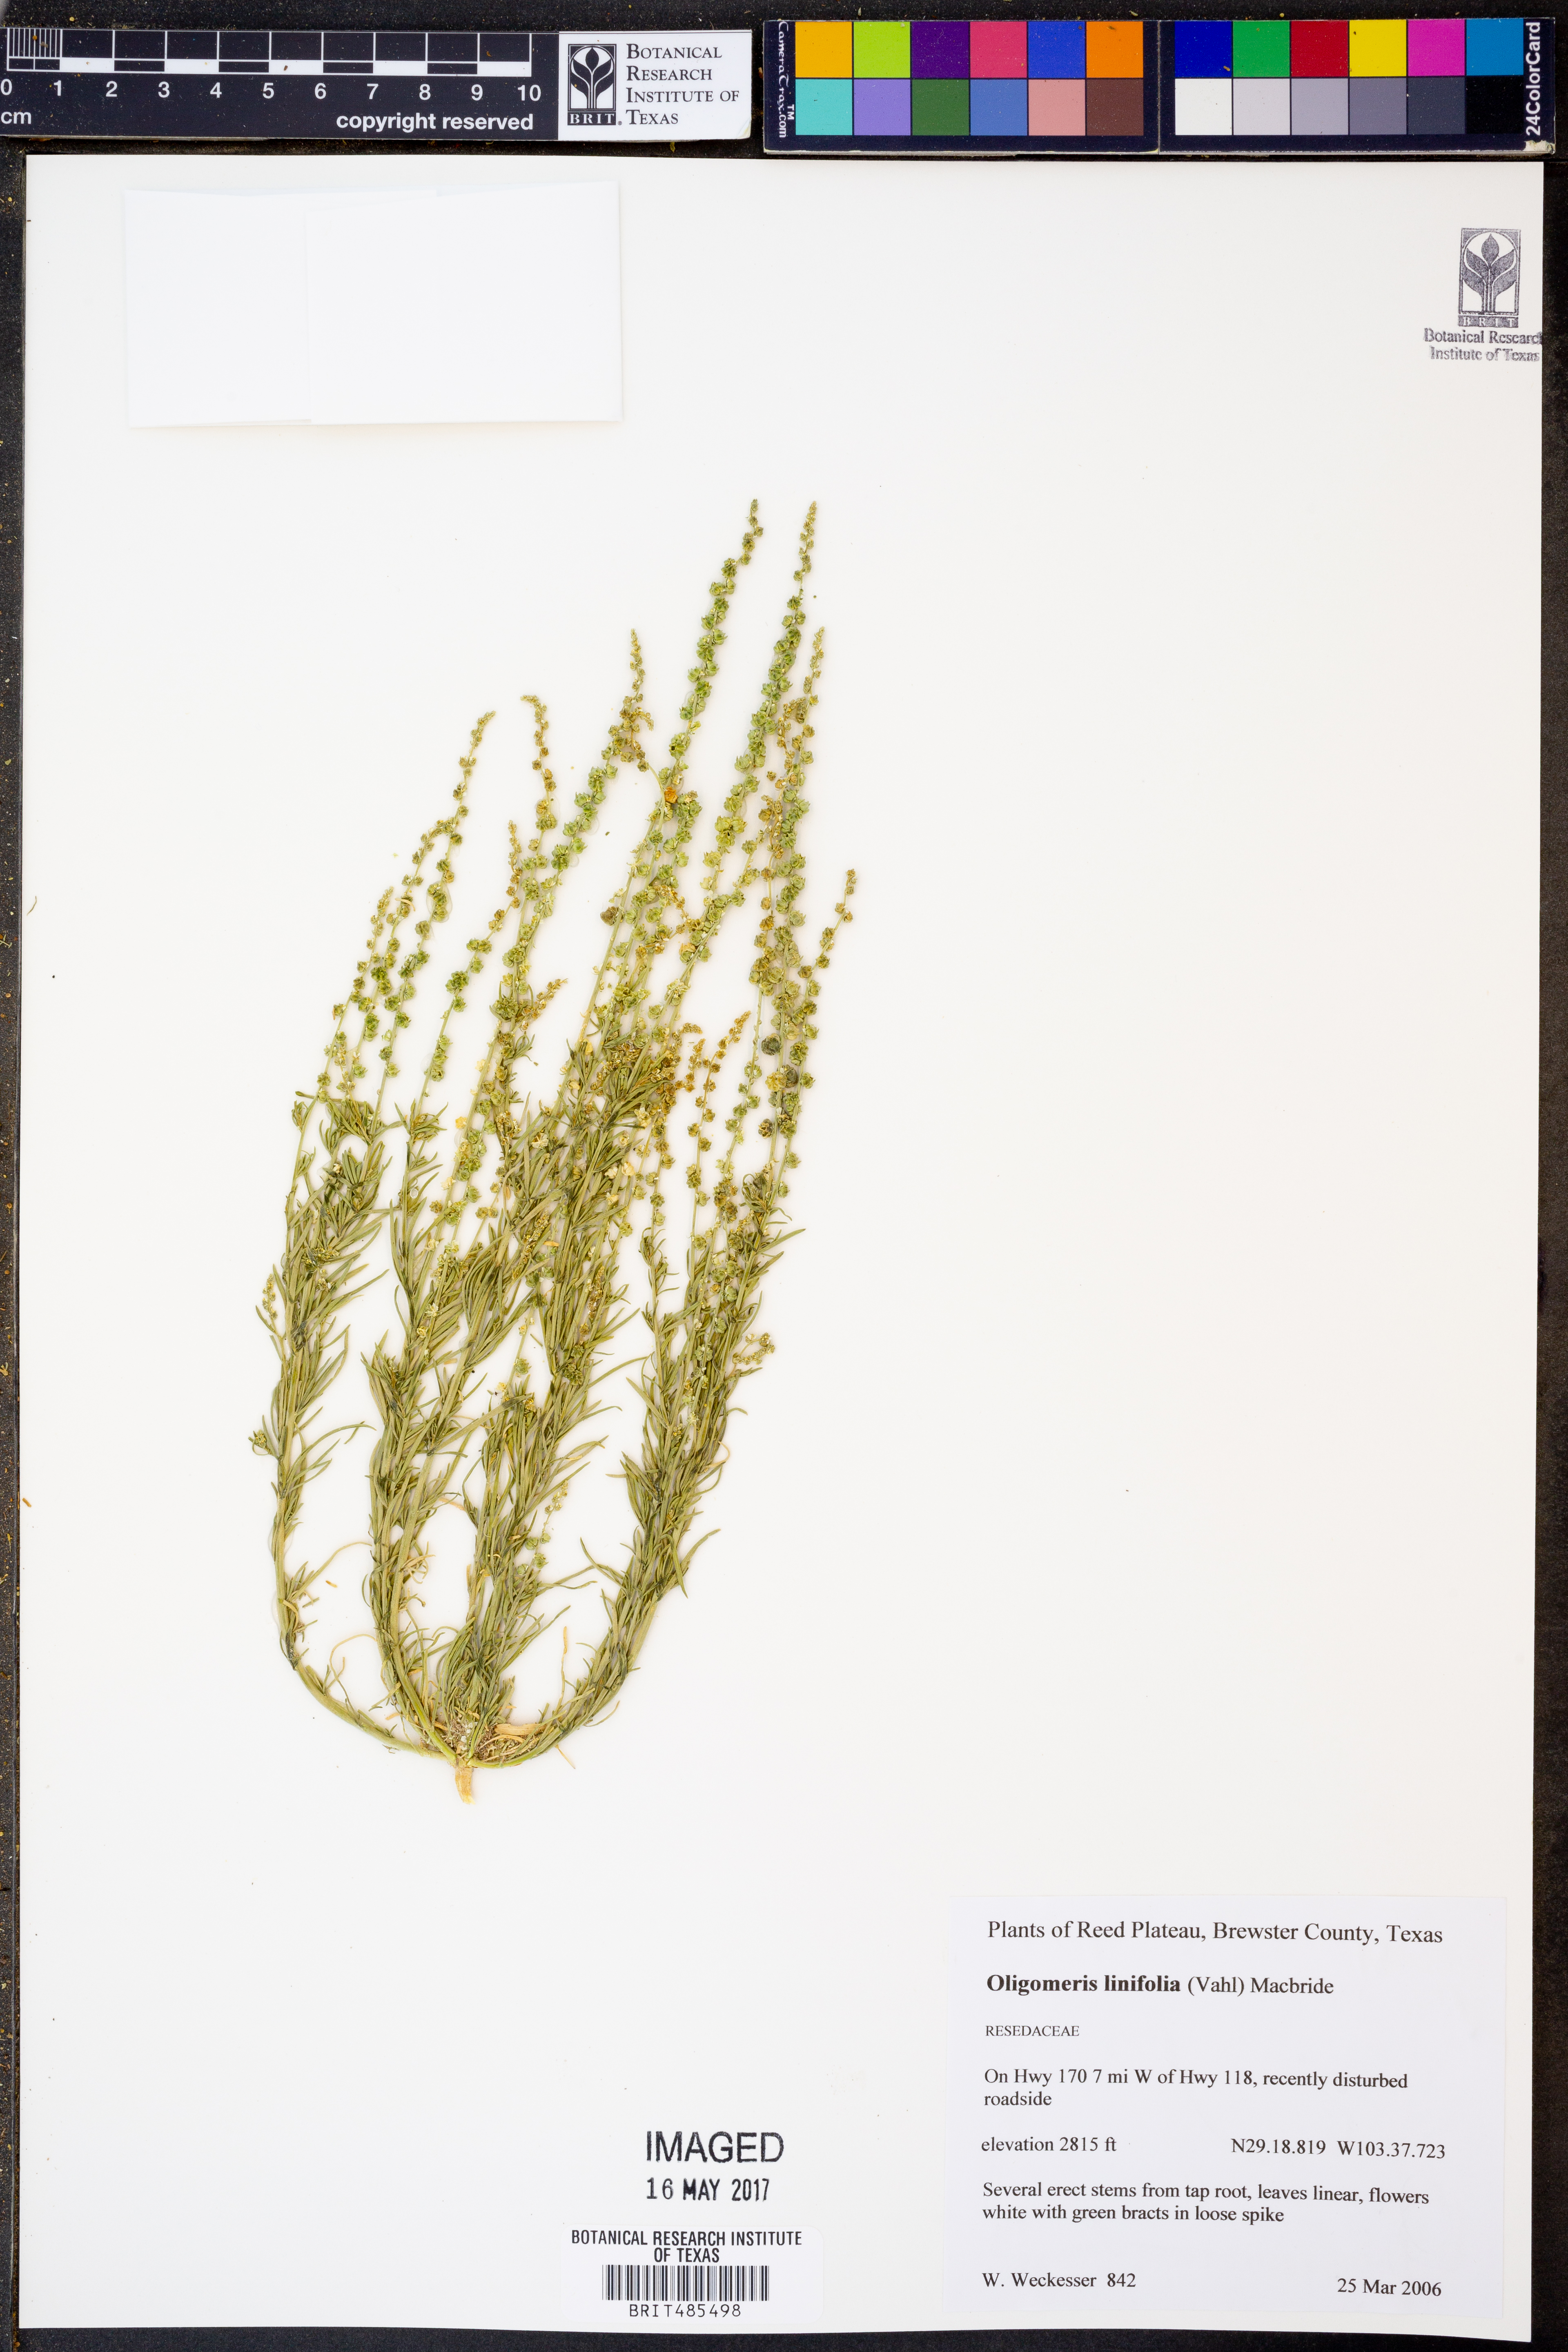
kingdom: Plantae
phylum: Tracheophyta
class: Magnoliopsida
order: Brassicales
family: Resedaceae
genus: Oligomeris
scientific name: Oligomeris linifolia
